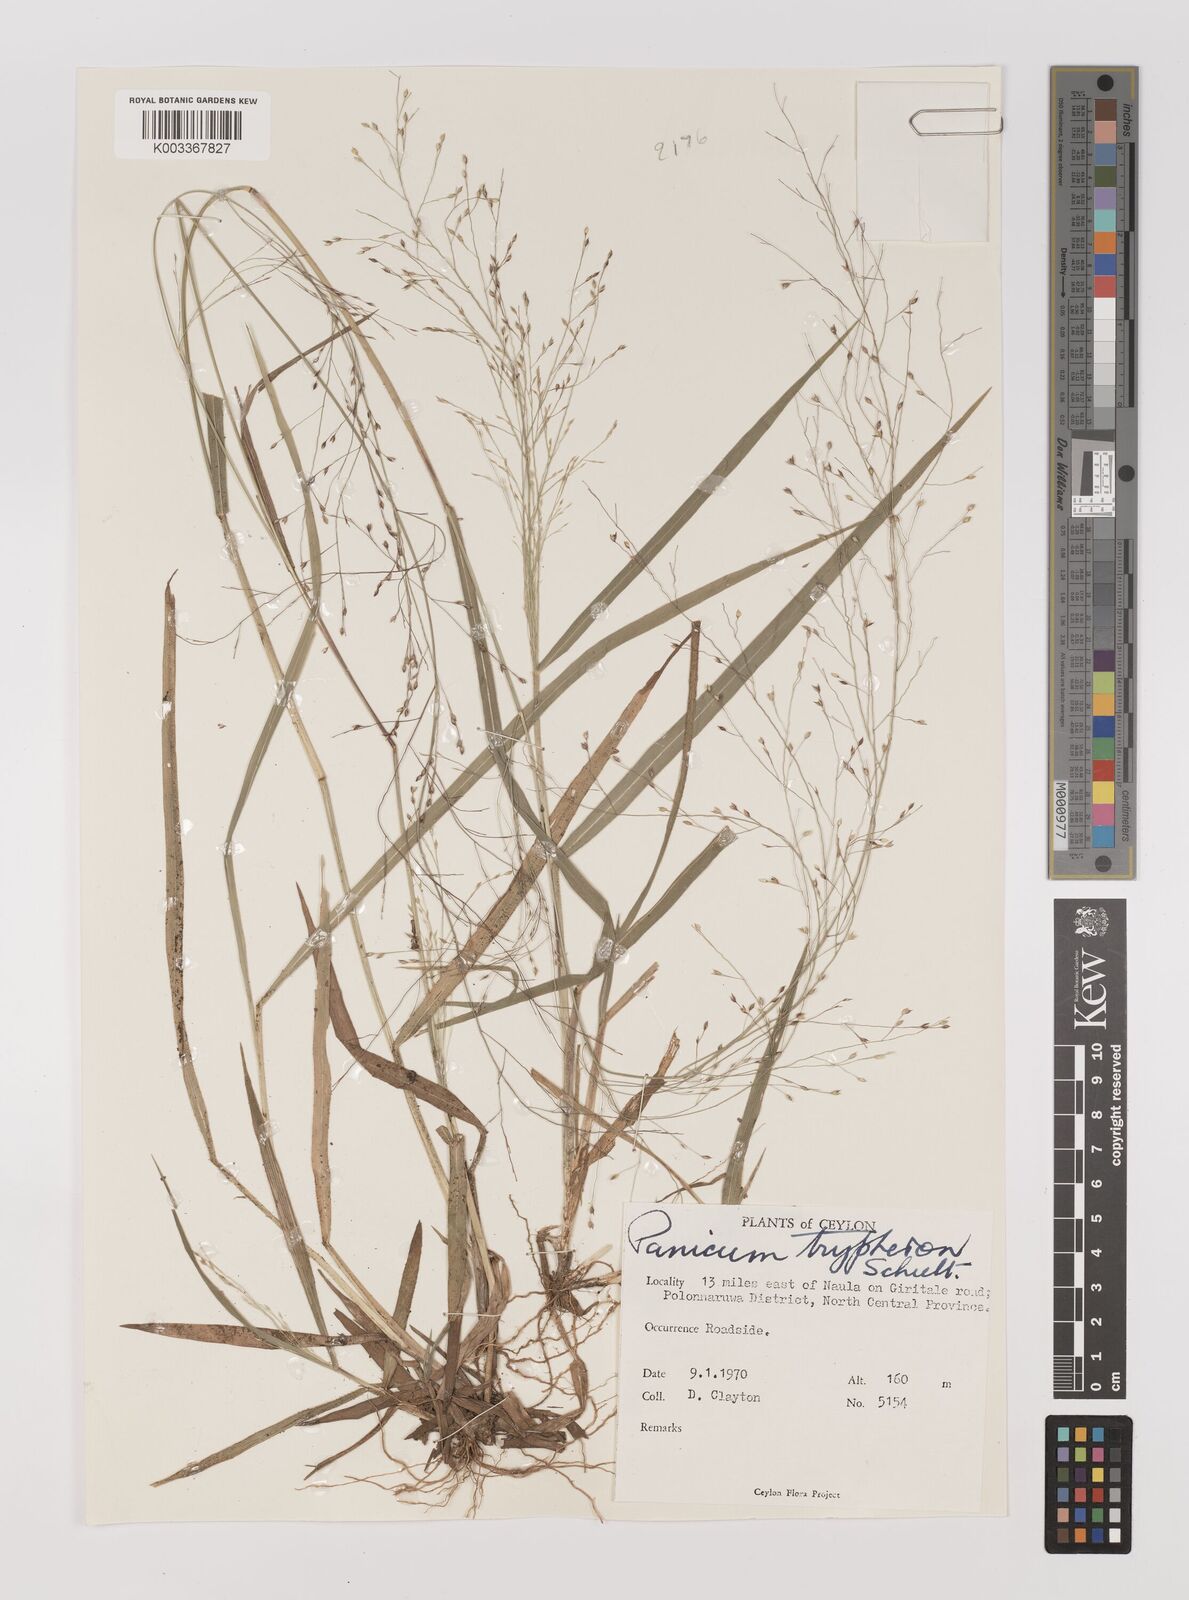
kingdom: Plantae
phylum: Tracheophyta
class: Liliopsida
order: Poales
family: Poaceae
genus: Panicum
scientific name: Panicum curviflorum
